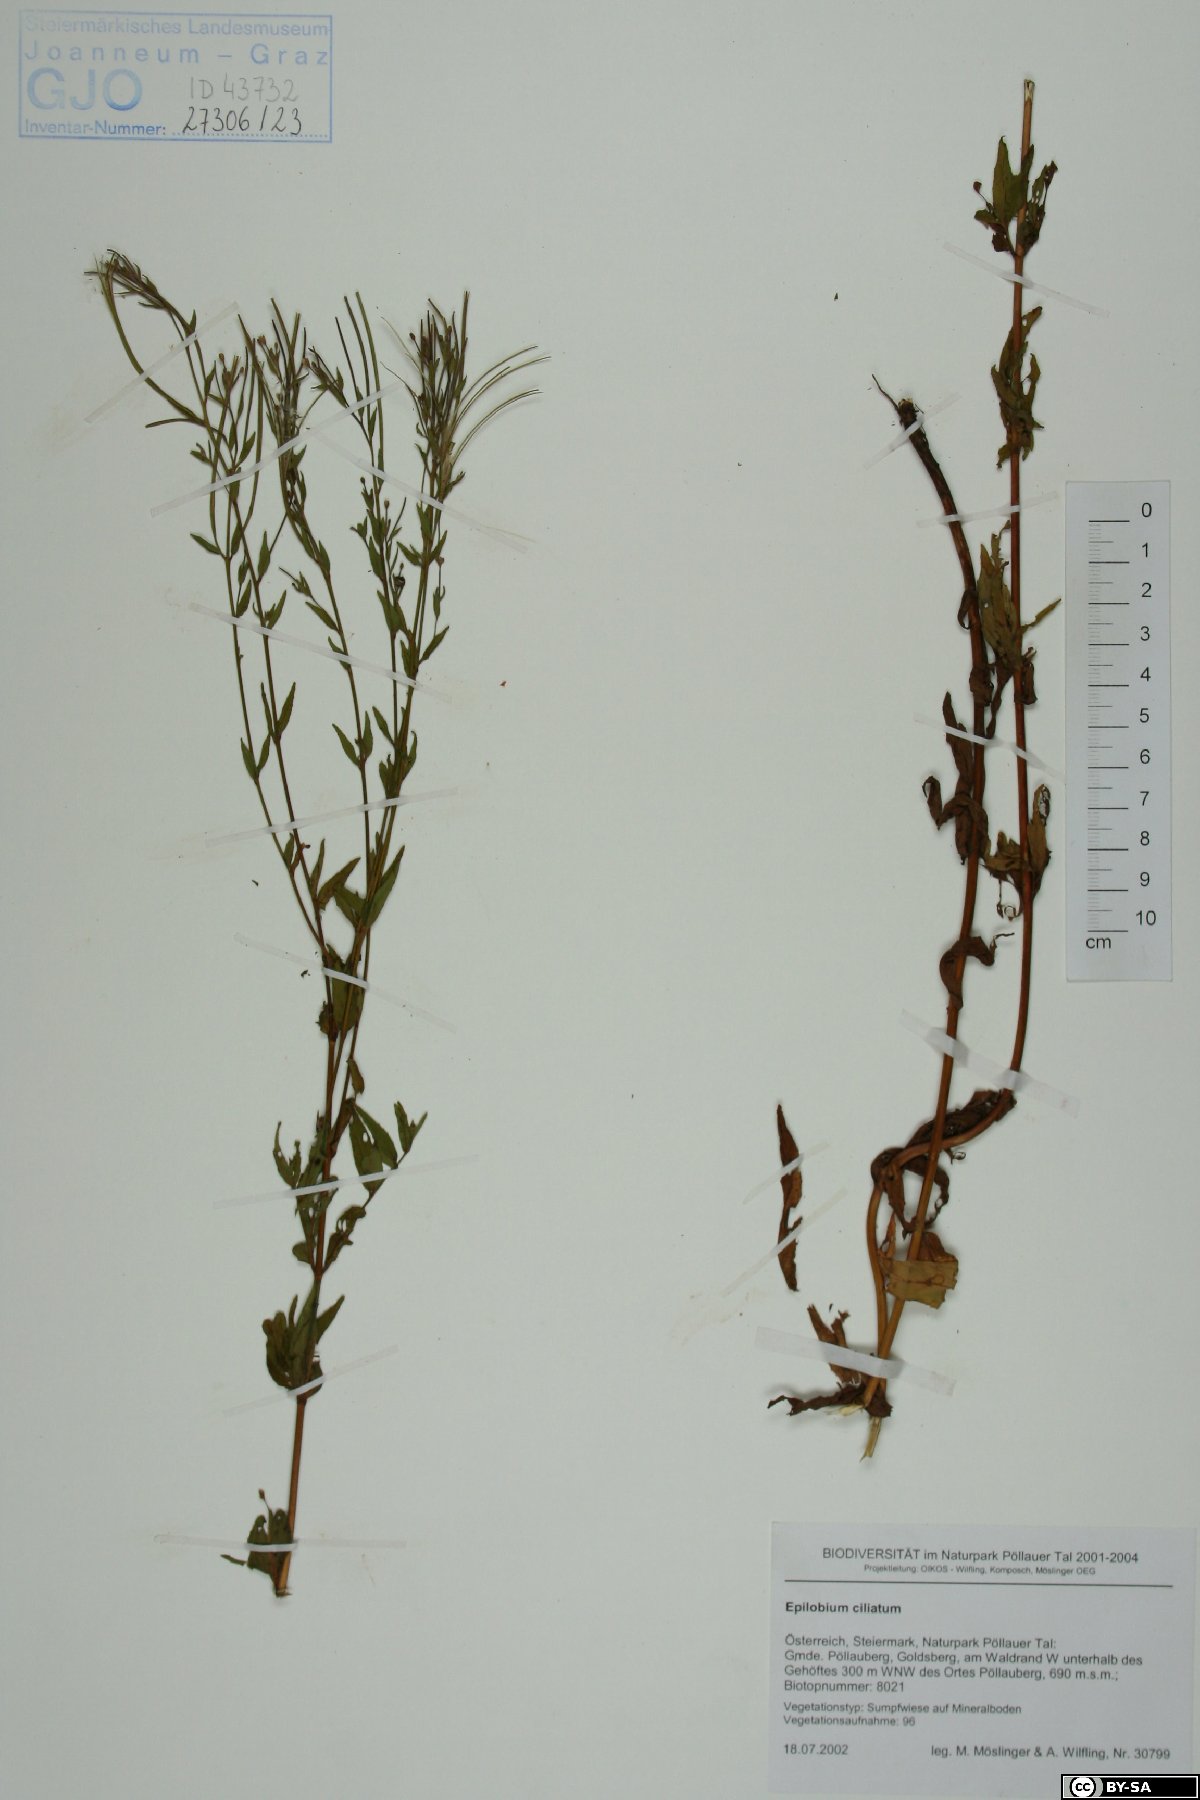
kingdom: Plantae
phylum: Tracheophyta
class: Magnoliopsida
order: Myrtales
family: Onagraceae
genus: Epilobium
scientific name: Epilobium ciliatum
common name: American willowherb
